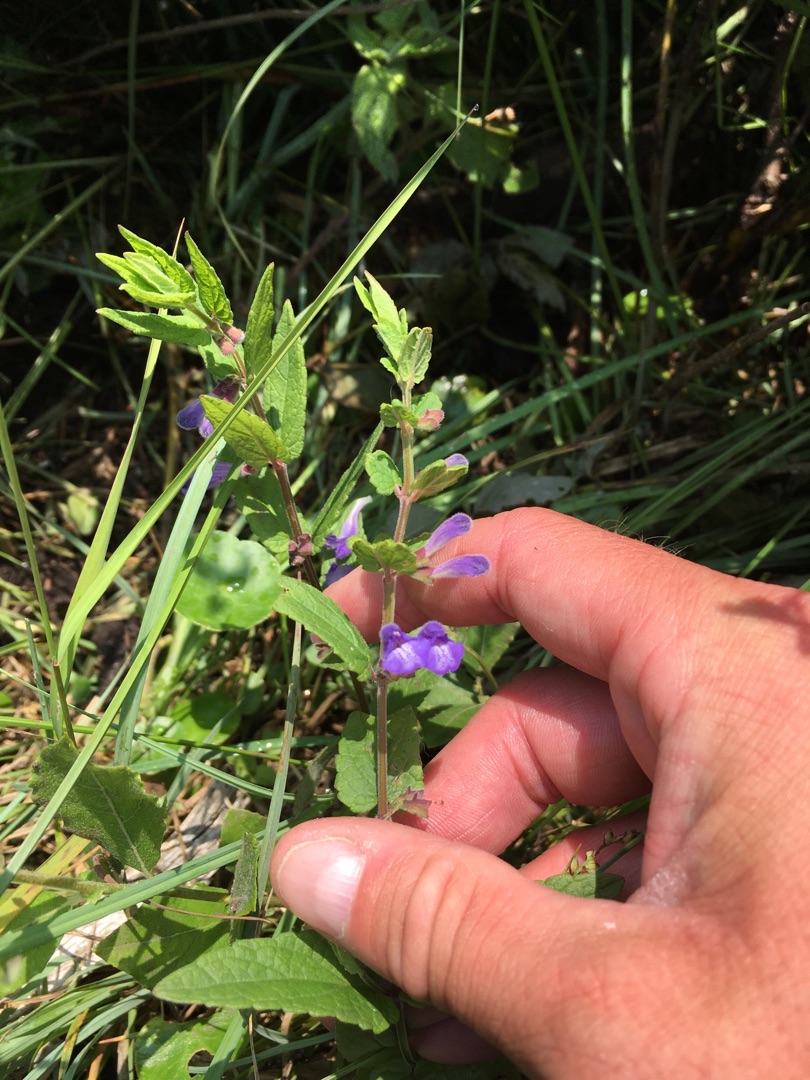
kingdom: Plantae
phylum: Tracheophyta
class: Magnoliopsida
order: Lamiales
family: Lamiaceae
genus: Scutellaria
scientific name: Scutellaria galericulata
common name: Almindelig skjolddrager
